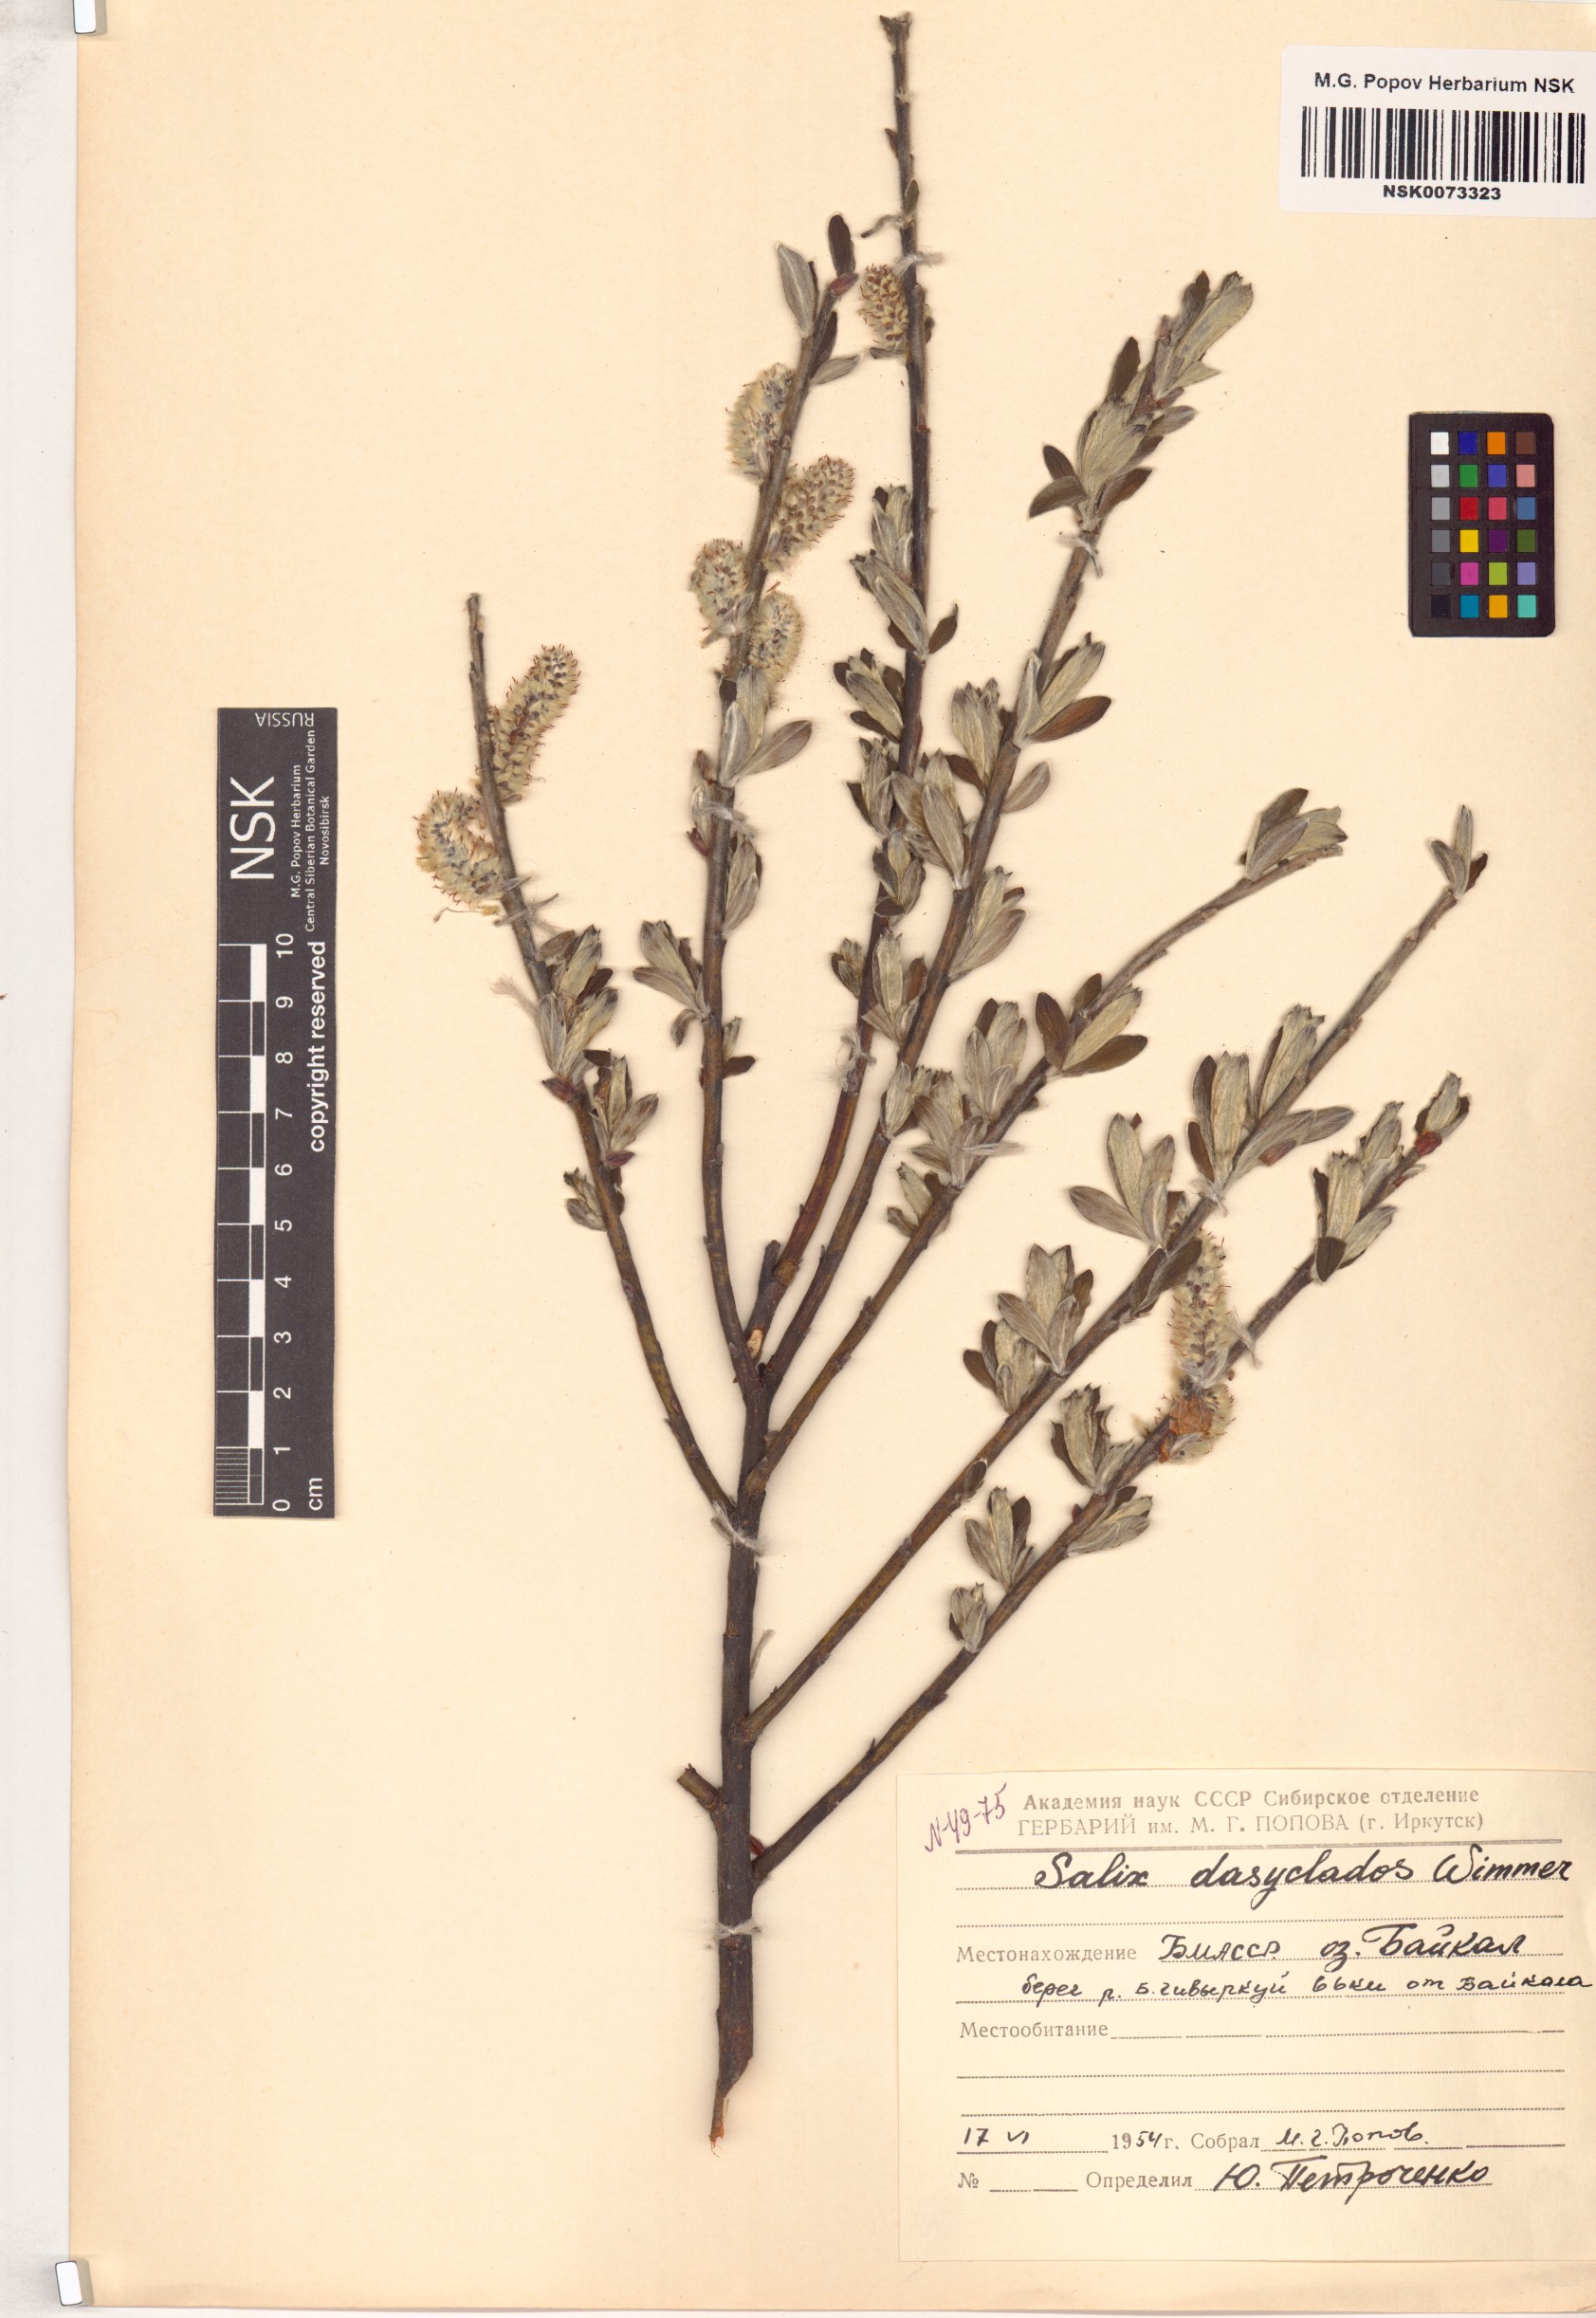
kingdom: Plantae
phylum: Tracheophyta
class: Magnoliopsida
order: Malpighiales
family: Salicaceae
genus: Salix
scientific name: Salix gmelinii
